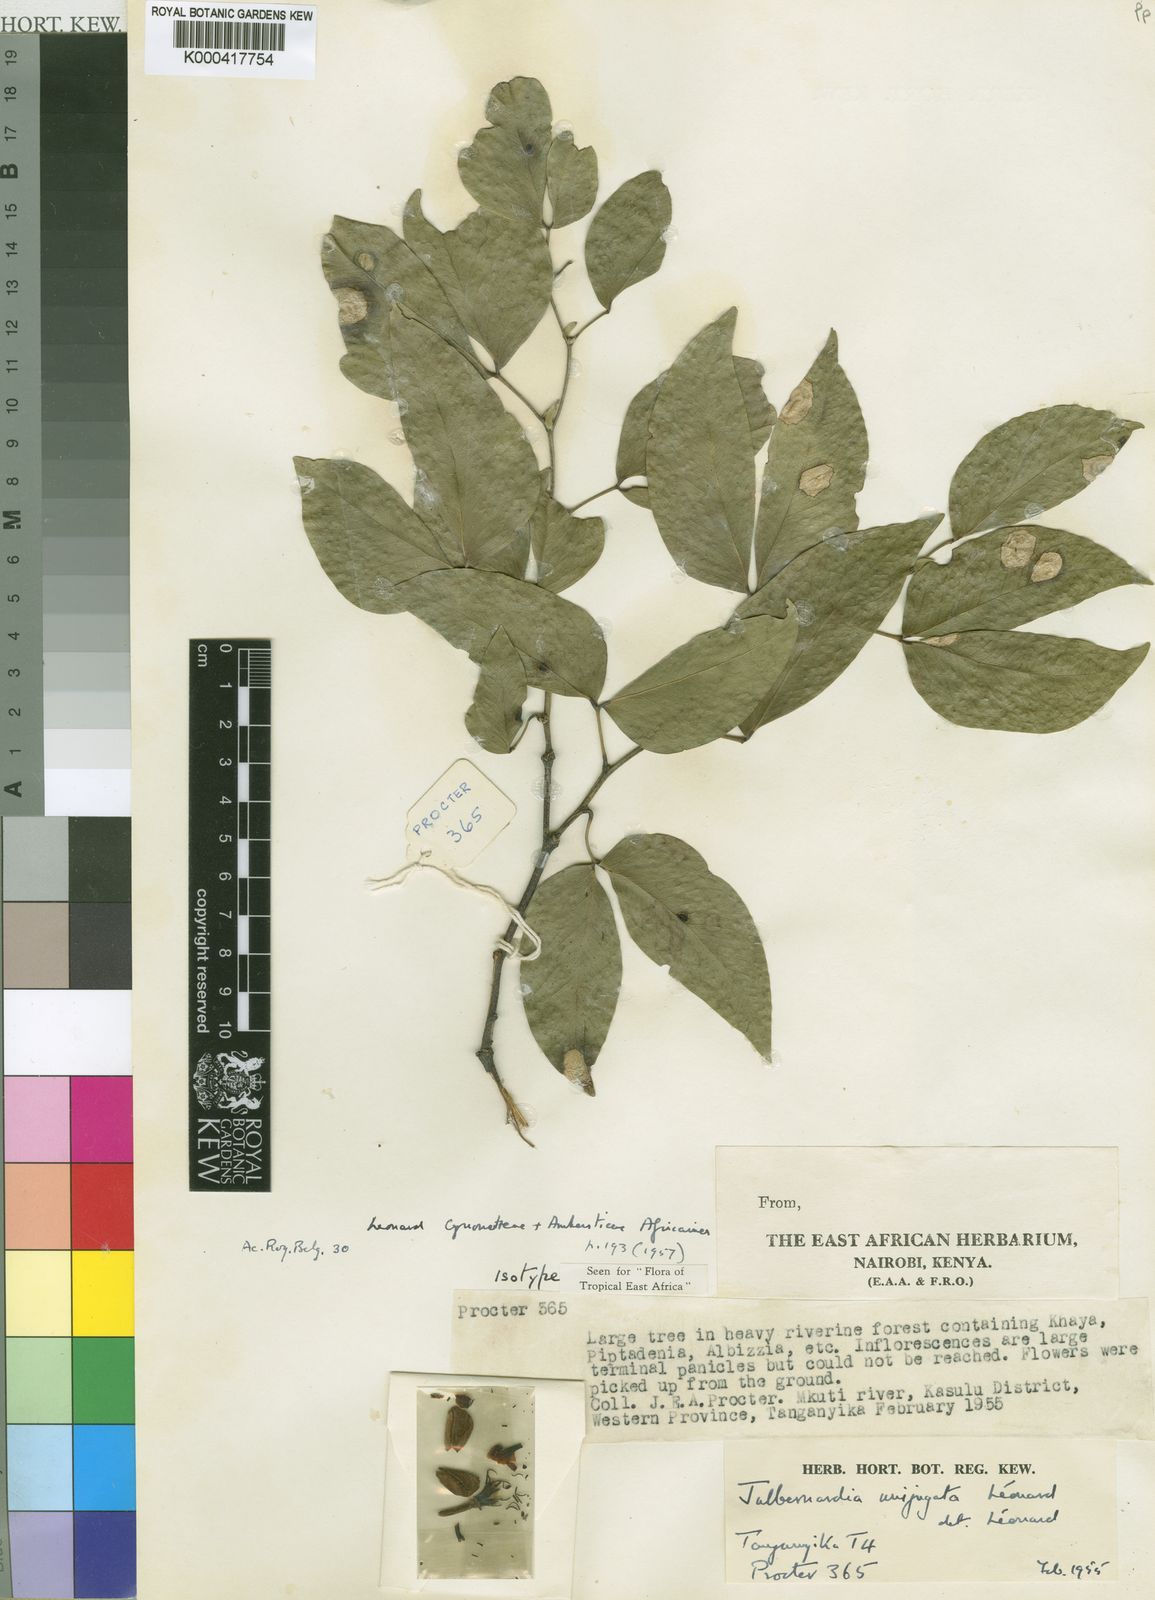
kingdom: Plantae
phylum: Tracheophyta
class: Magnoliopsida
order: Fabales
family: Fabaceae
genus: Julbernardia
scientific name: Julbernardia
